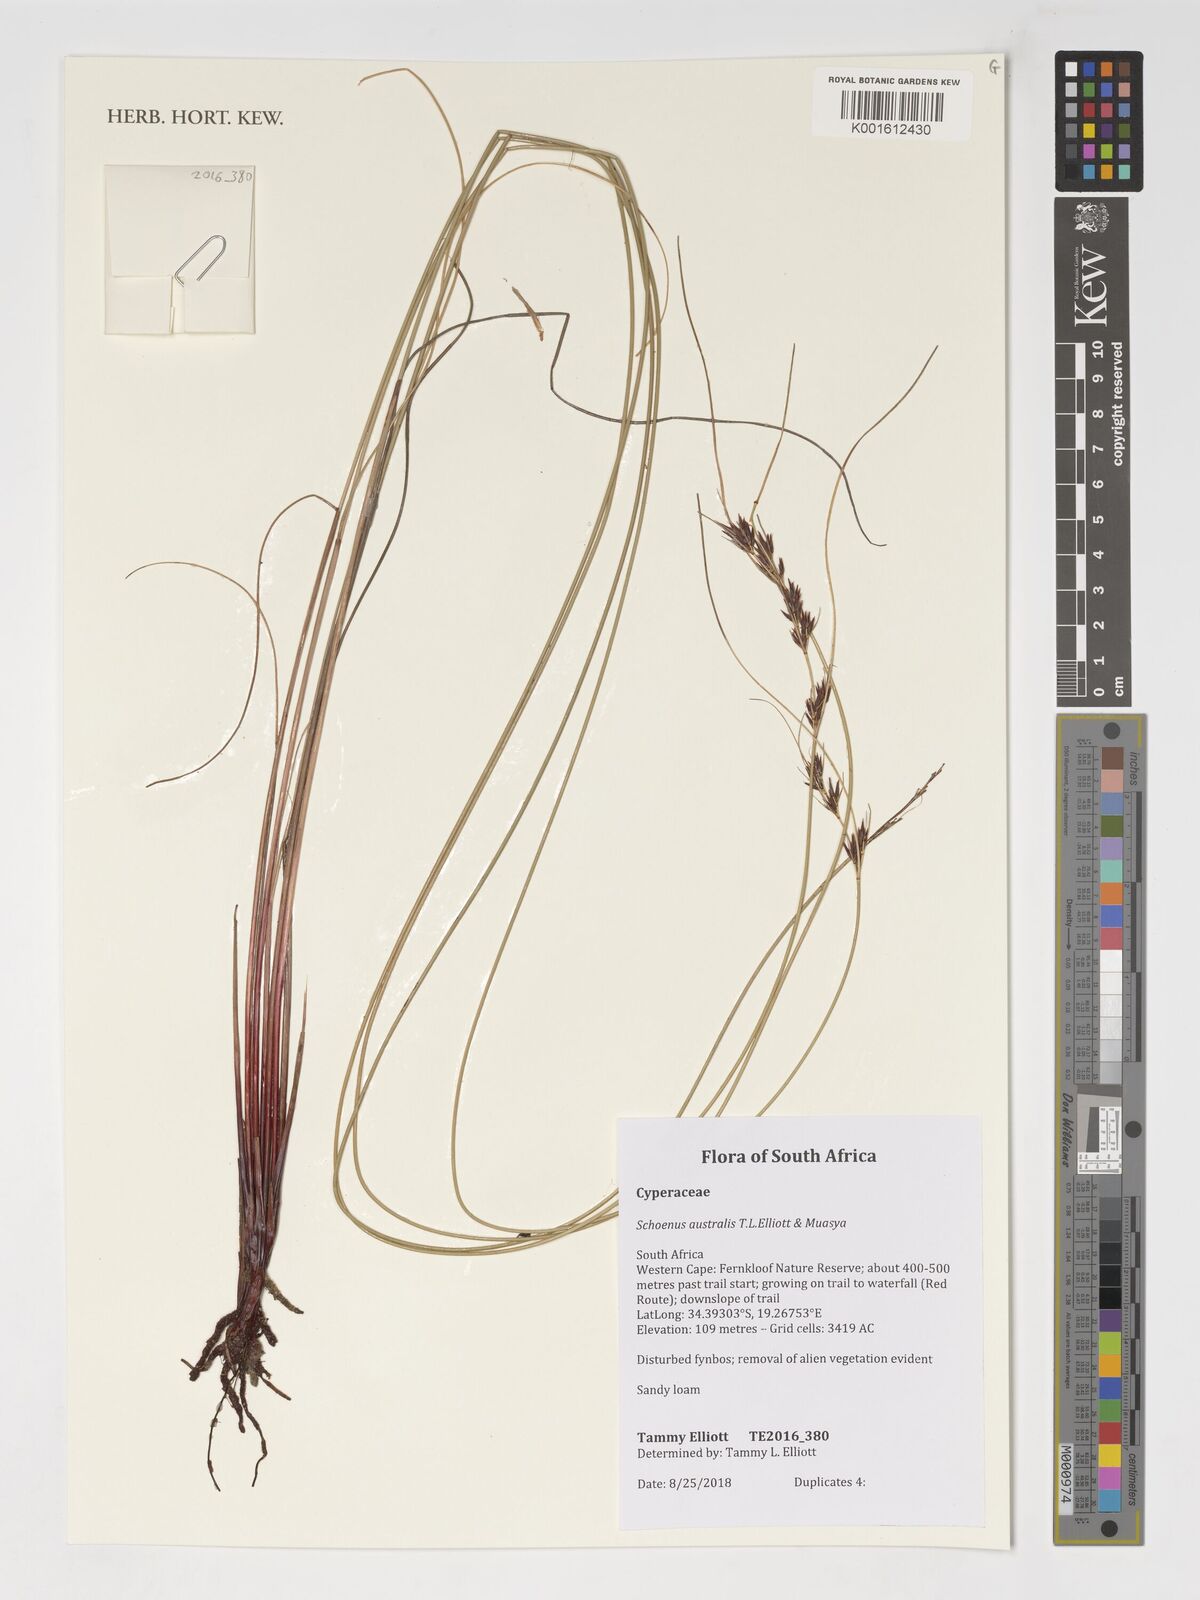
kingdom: Plantae
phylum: Tracheophyta
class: Liliopsida
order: Poales
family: Cyperaceae
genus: Schoenus
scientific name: Schoenus
